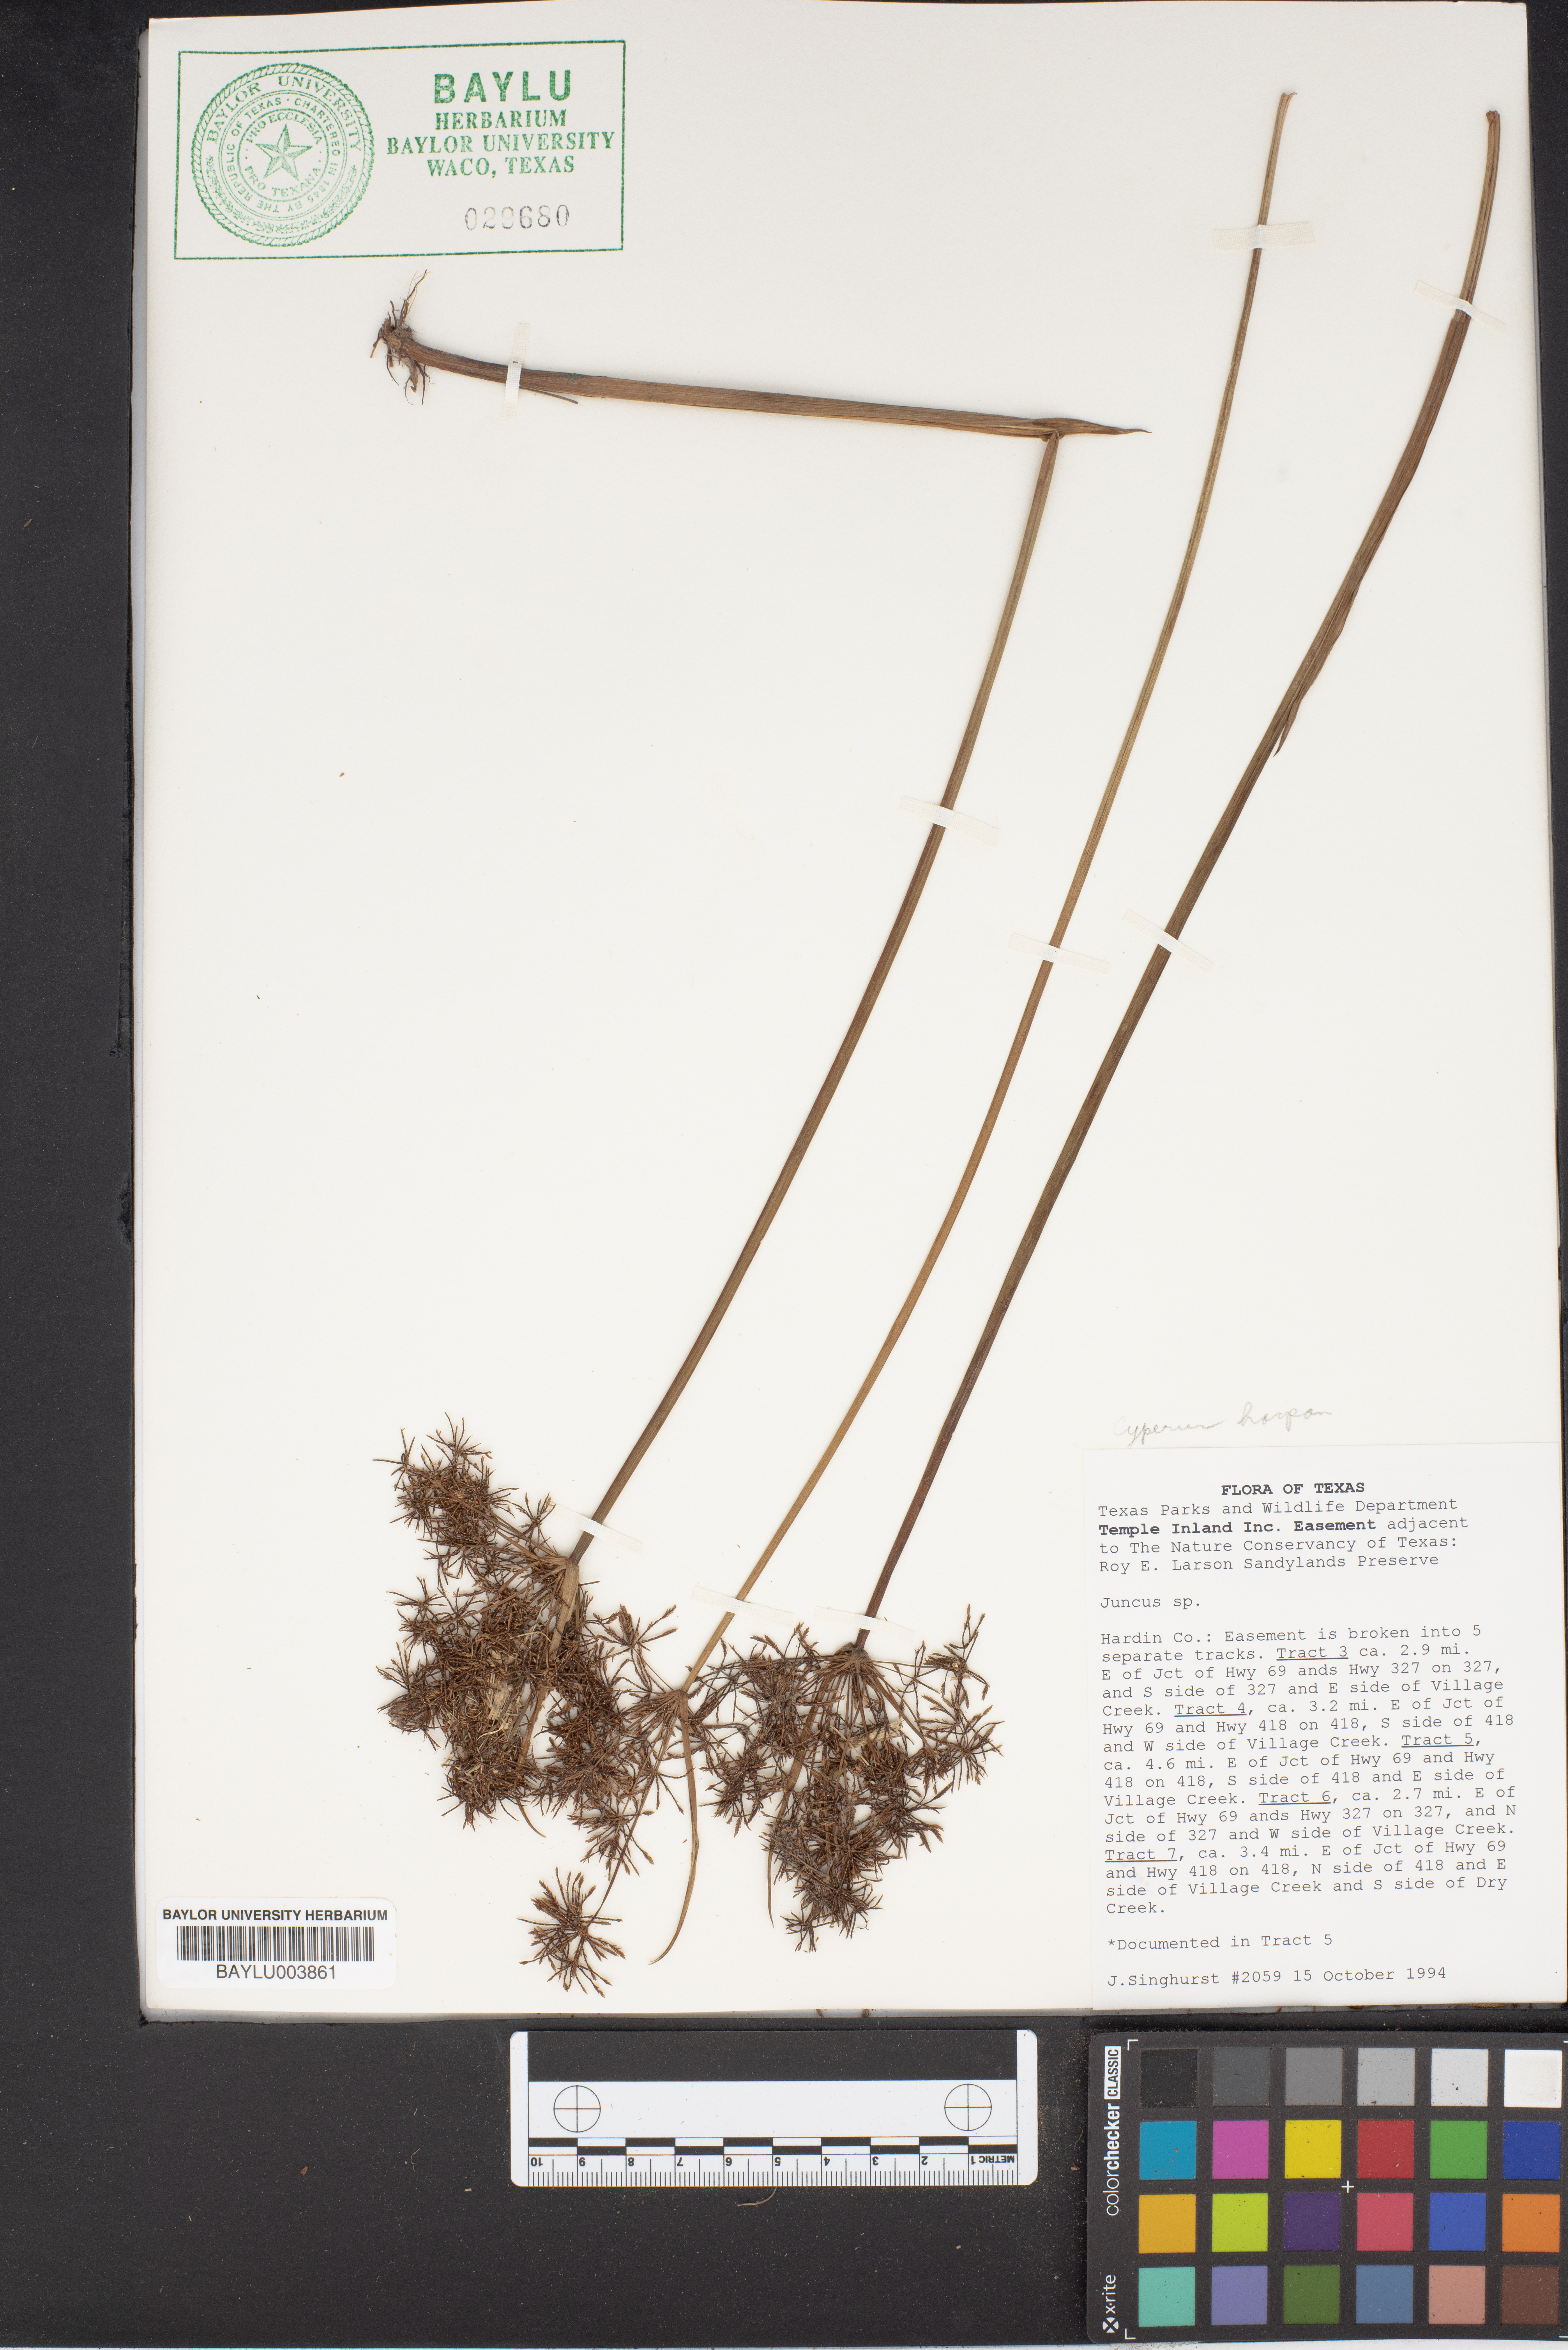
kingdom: Plantae
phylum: Tracheophyta
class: Liliopsida
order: Poales
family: Cyperaceae
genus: Cyperus
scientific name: Cyperus haspan
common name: Haspan flatsedge
